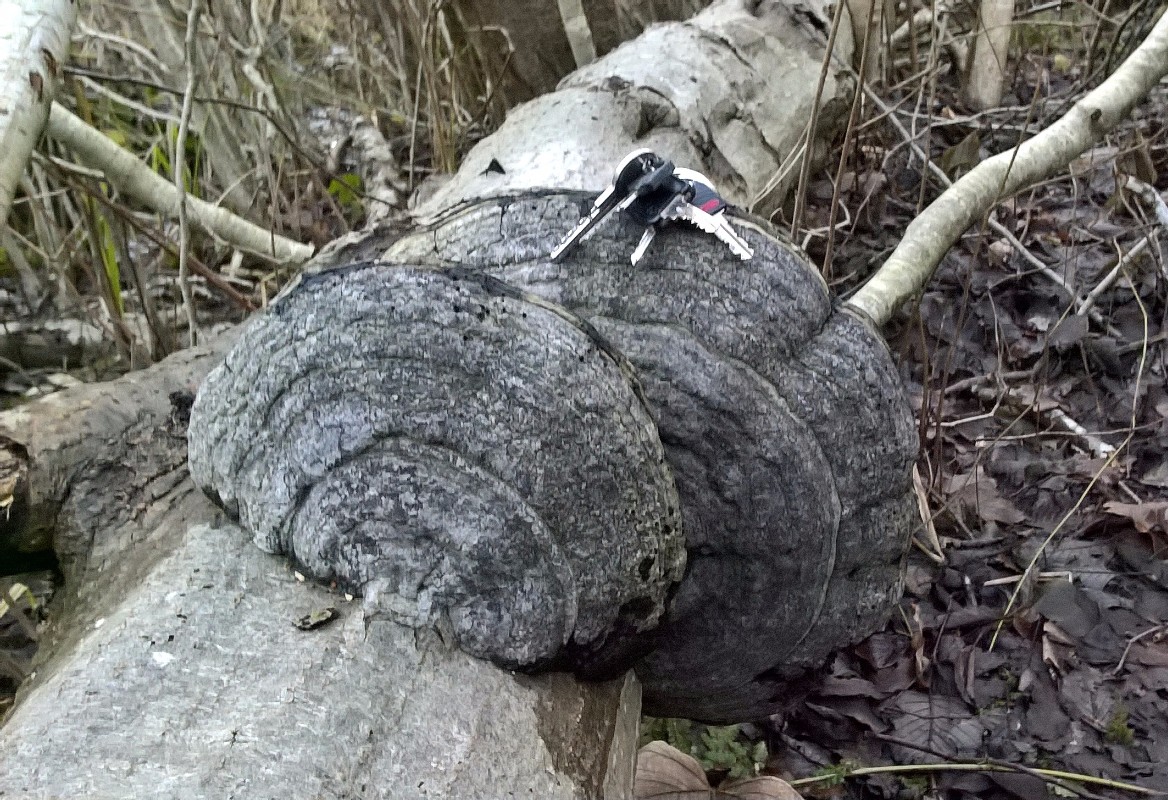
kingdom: Fungi
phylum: Basidiomycota
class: Agaricomycetes
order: Polyporales
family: Polyporaceae
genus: Fomes
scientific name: Fomes fomentarius
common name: tøndersvamp
